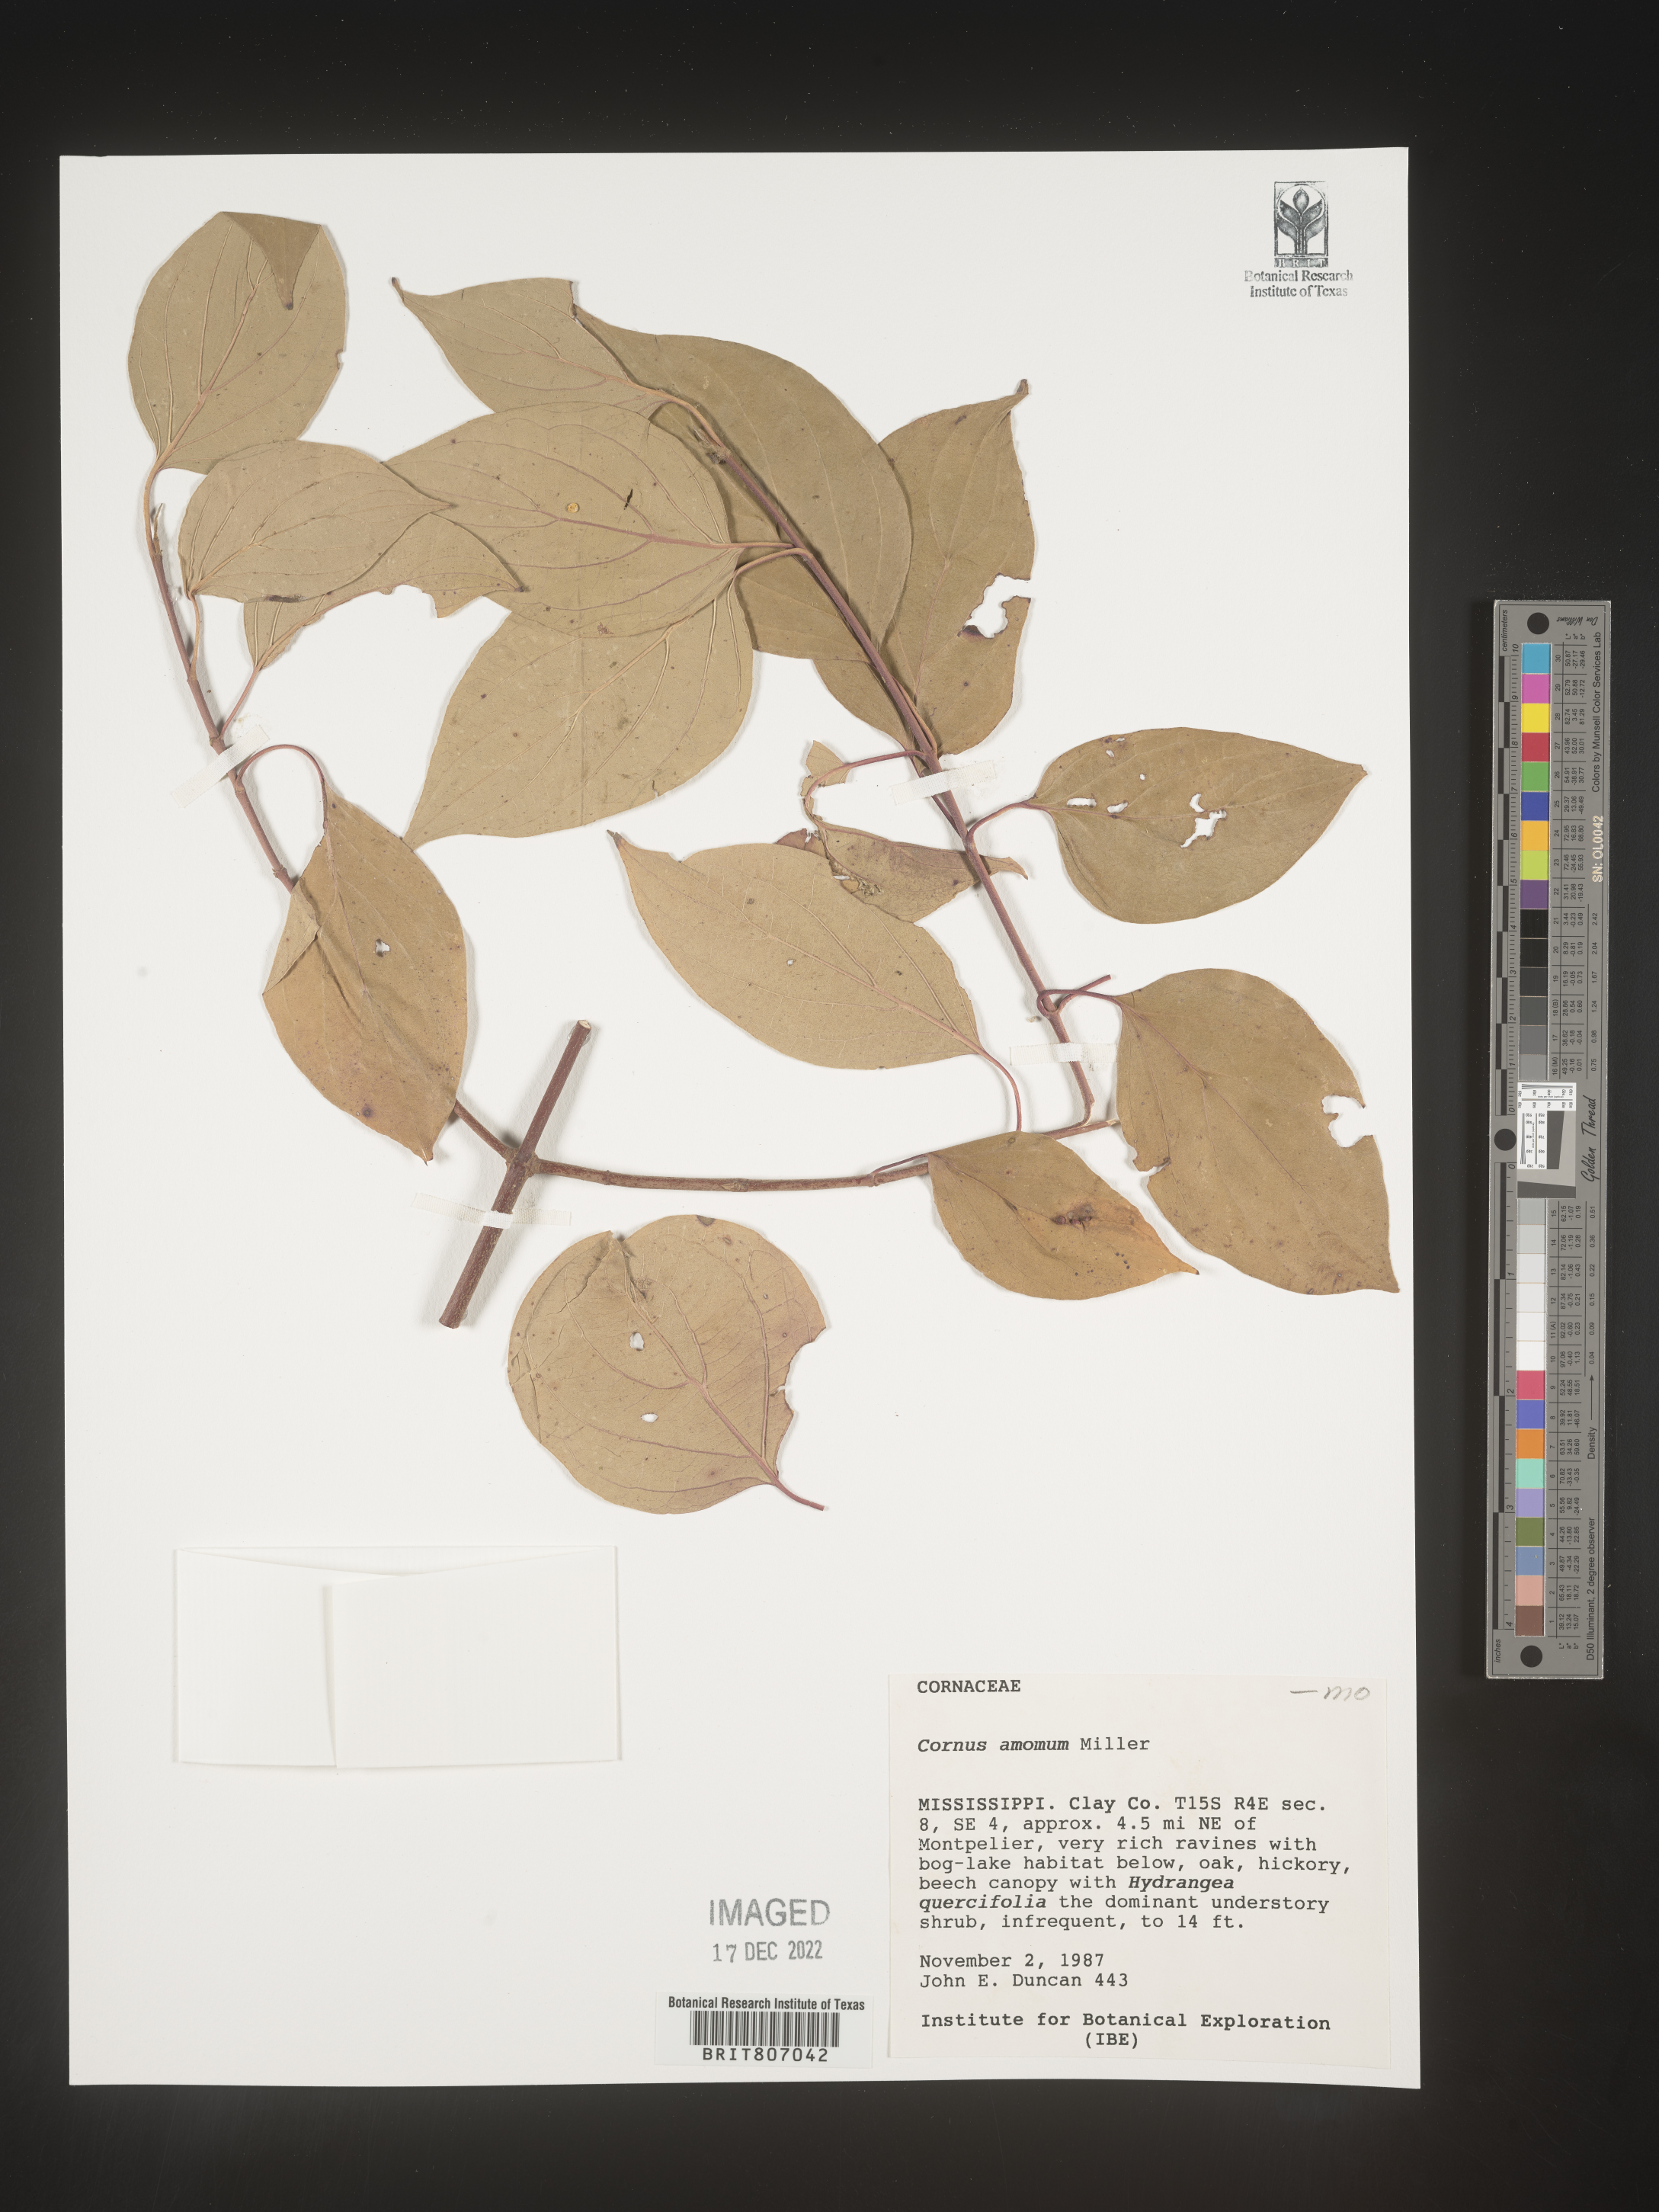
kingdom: Plantae
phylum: Tracheophyta
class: Magnoliopsida
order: Cornales
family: Cornaceae
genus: Cornus
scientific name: Cornus amomum
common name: Silky dogwood
